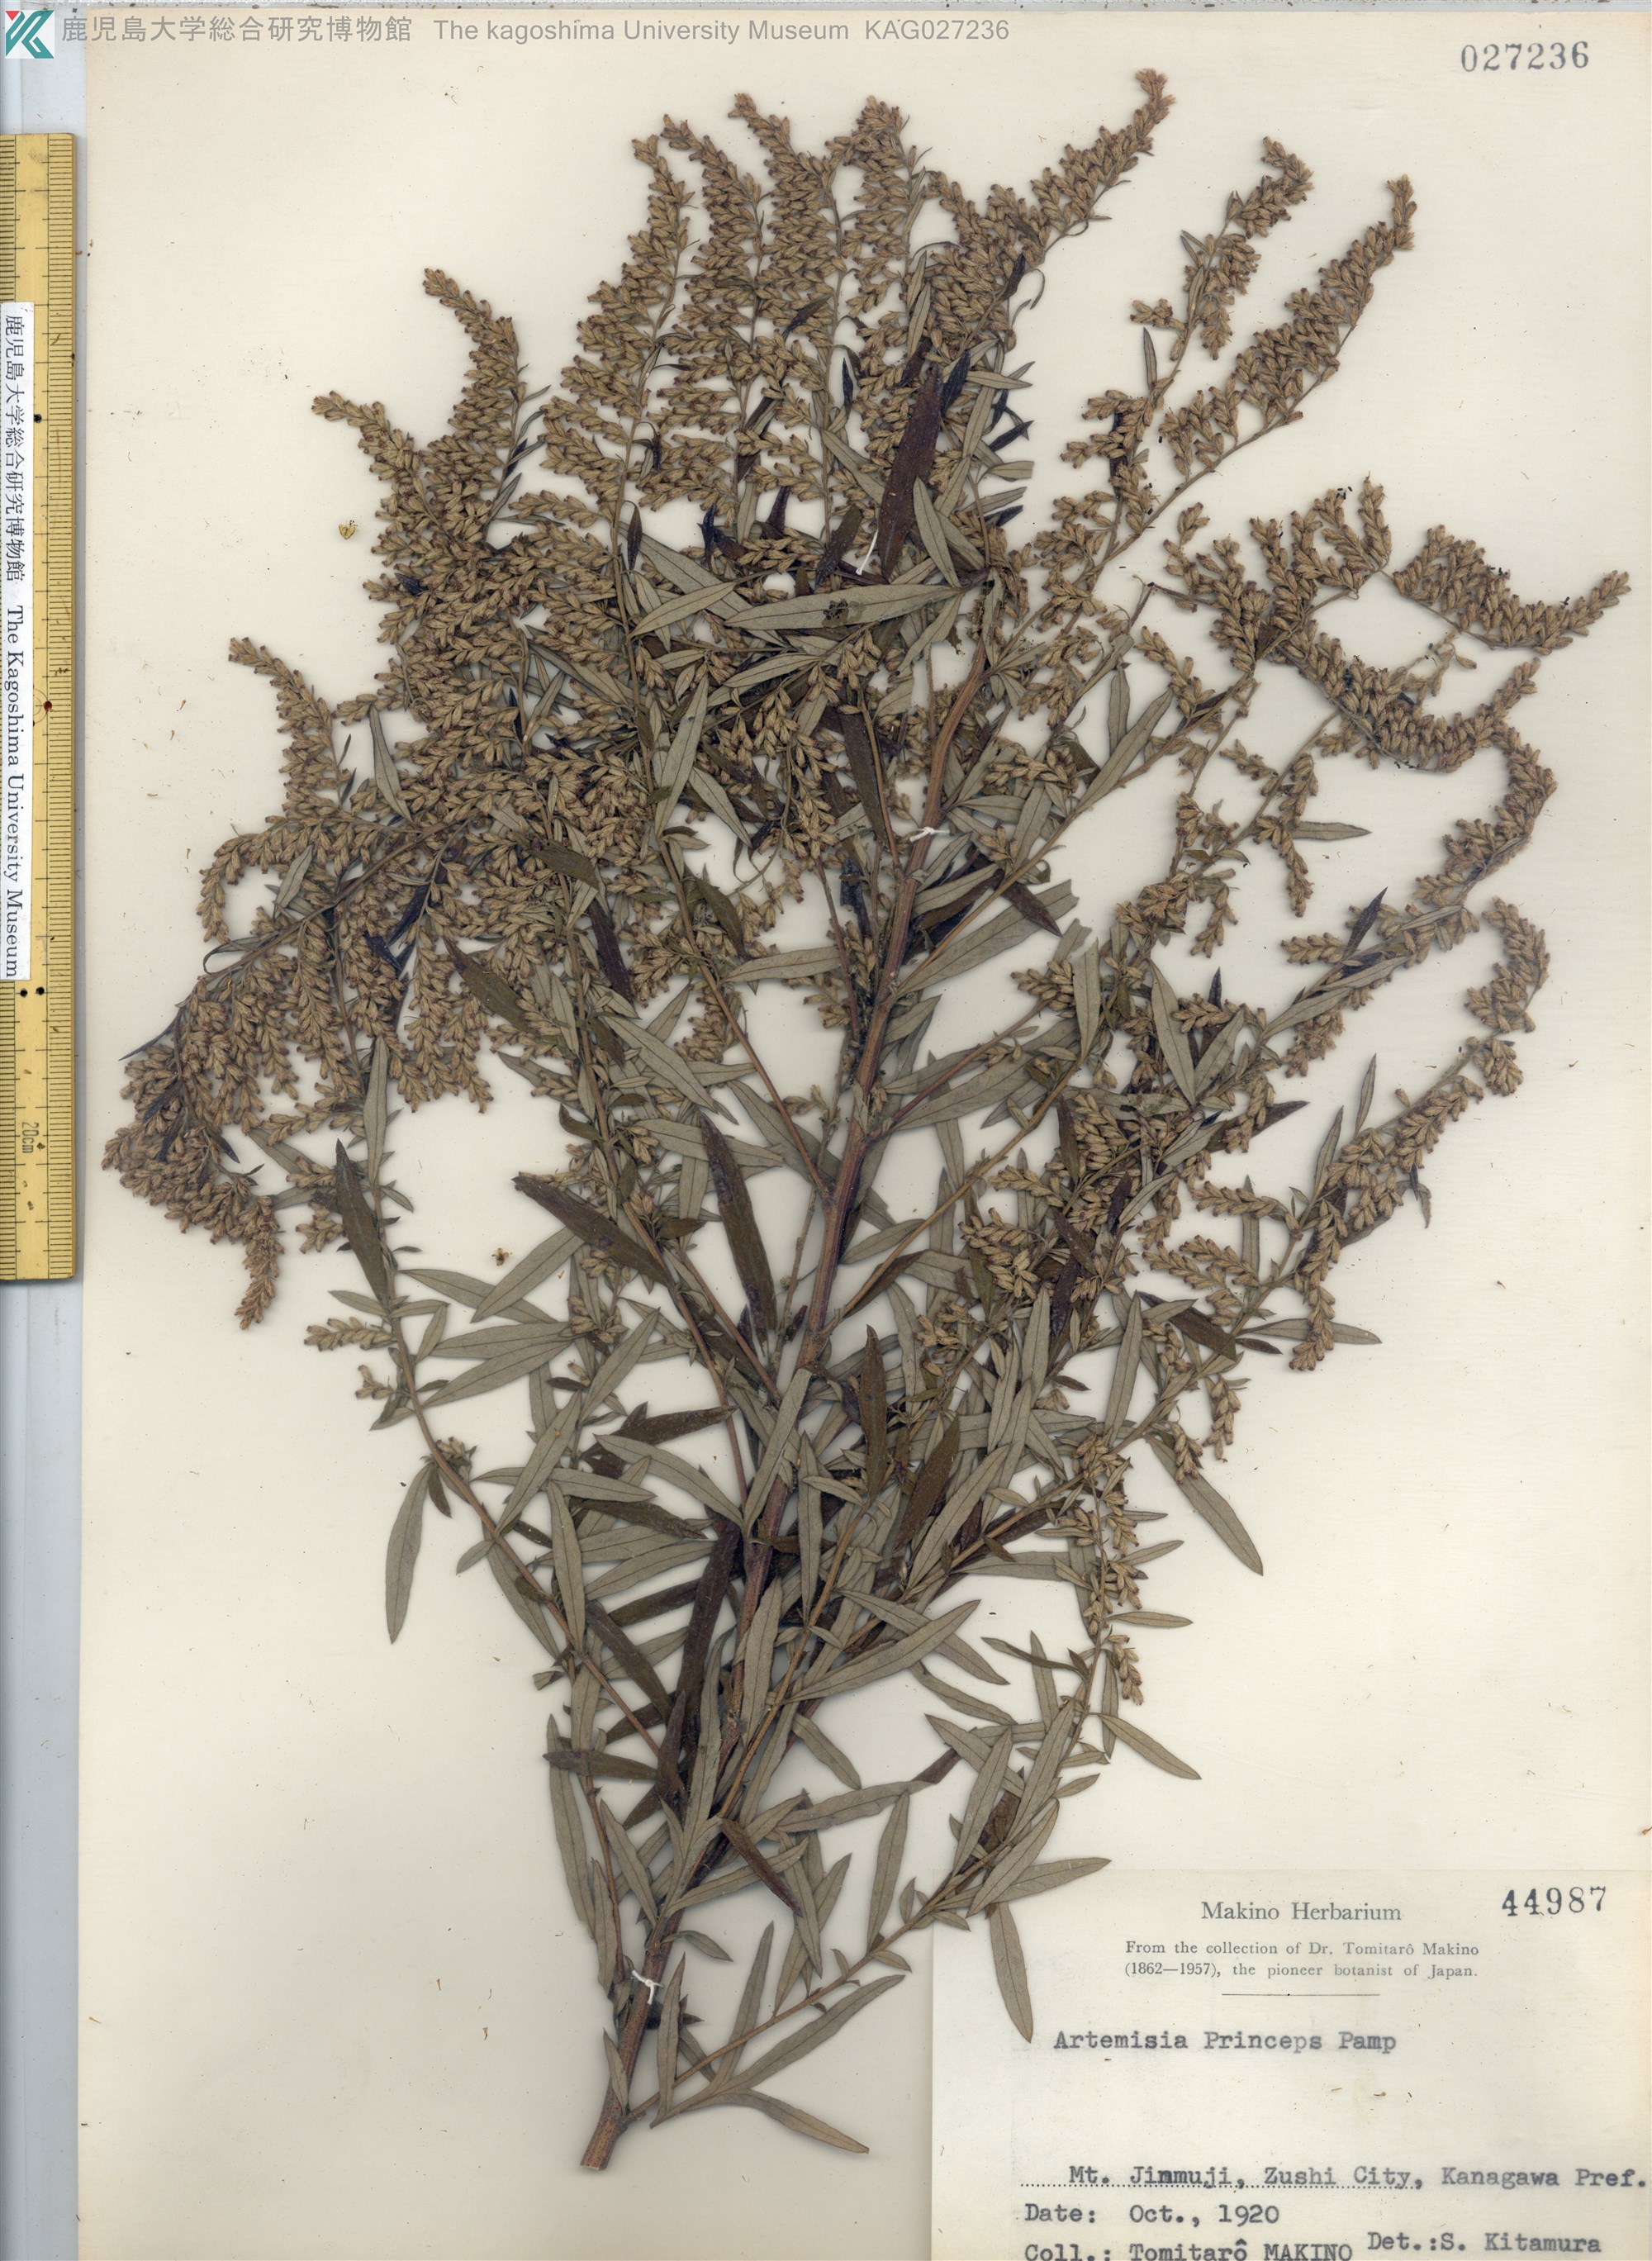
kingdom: Plantae
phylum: Tracheophyta
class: Magnoliopsida
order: Asterales
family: Asteraceae
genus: Artemisia
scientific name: Artemisia princeps
